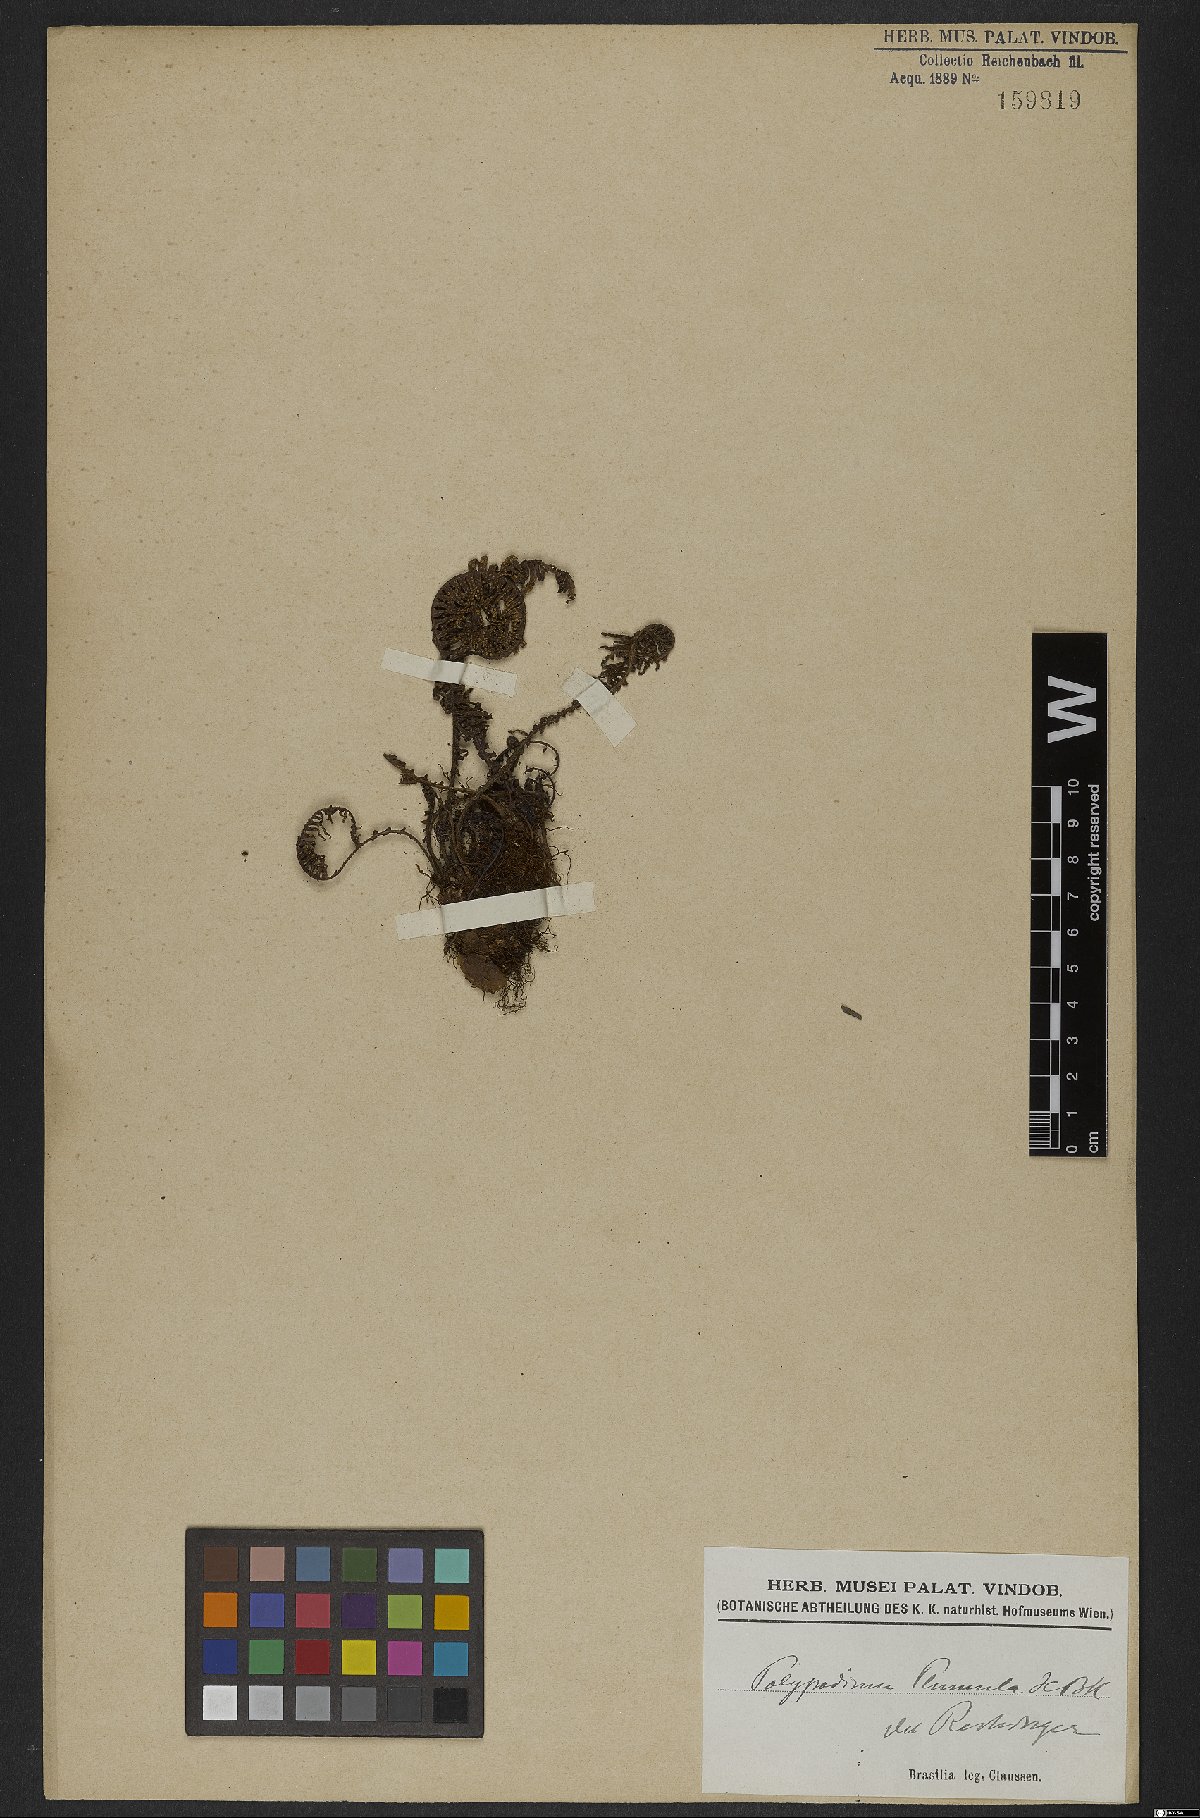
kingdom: Plantae
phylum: Tracheophyta
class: Polypodiopsida
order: Polypodiales
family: Polypodiaceae
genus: Pecluma
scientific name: Pecluma plumula
